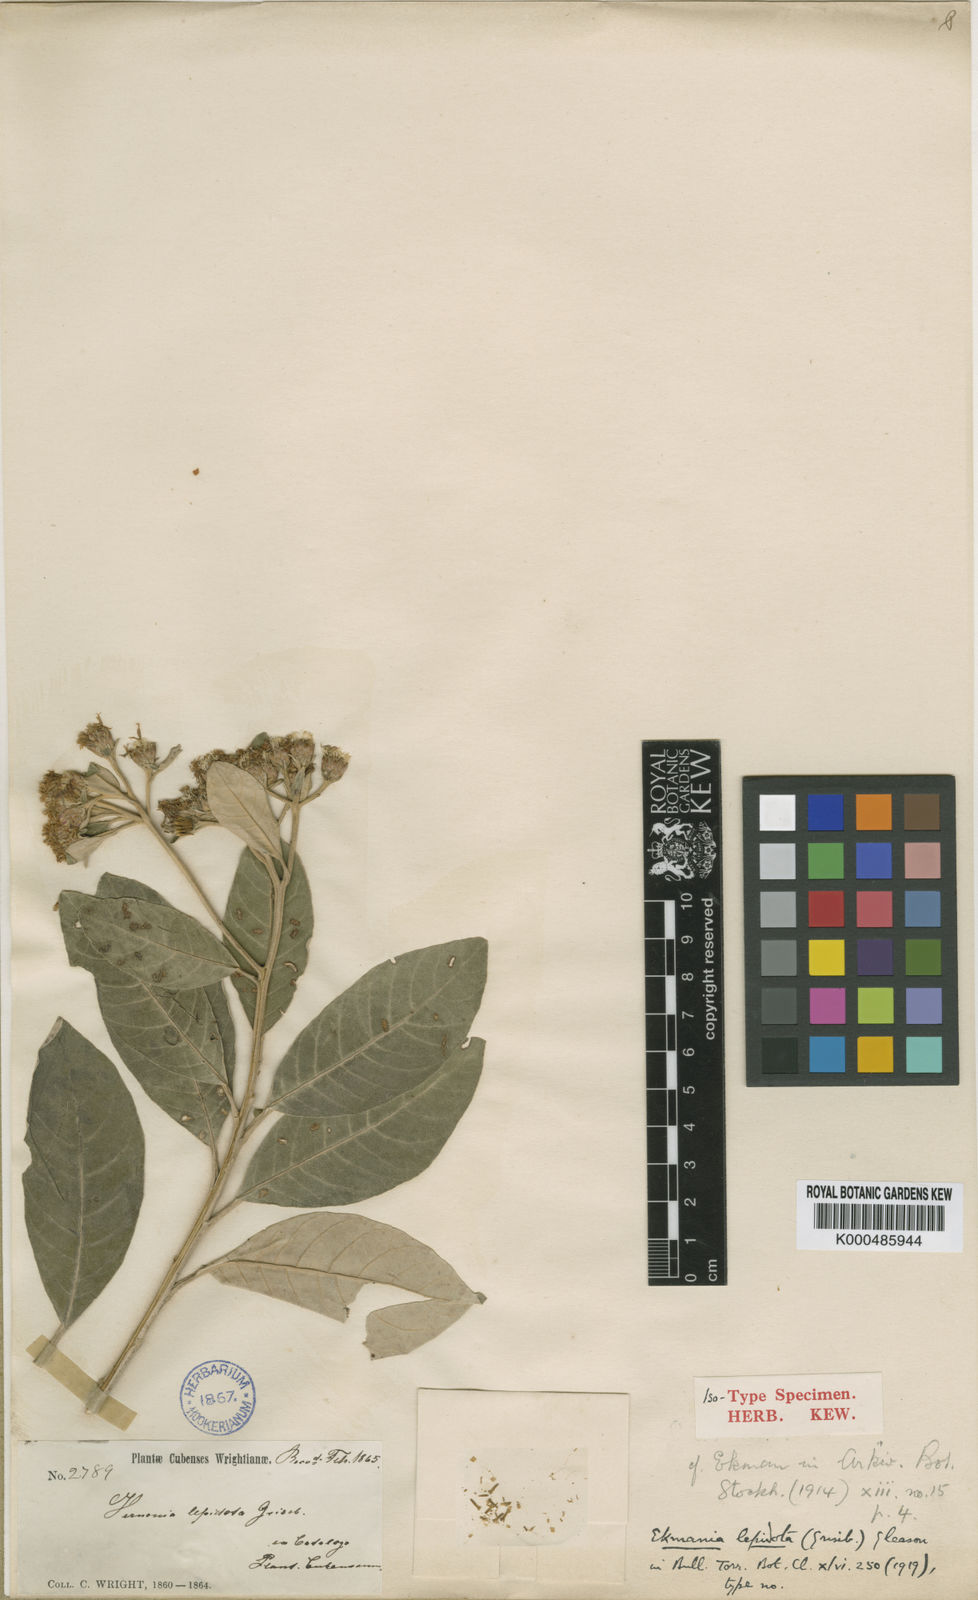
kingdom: Plantae
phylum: Tracheophyta
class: Magnoliopsida
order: Asterales
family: Asteraceae
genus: Ekmania
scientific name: Ekmania lepidota
